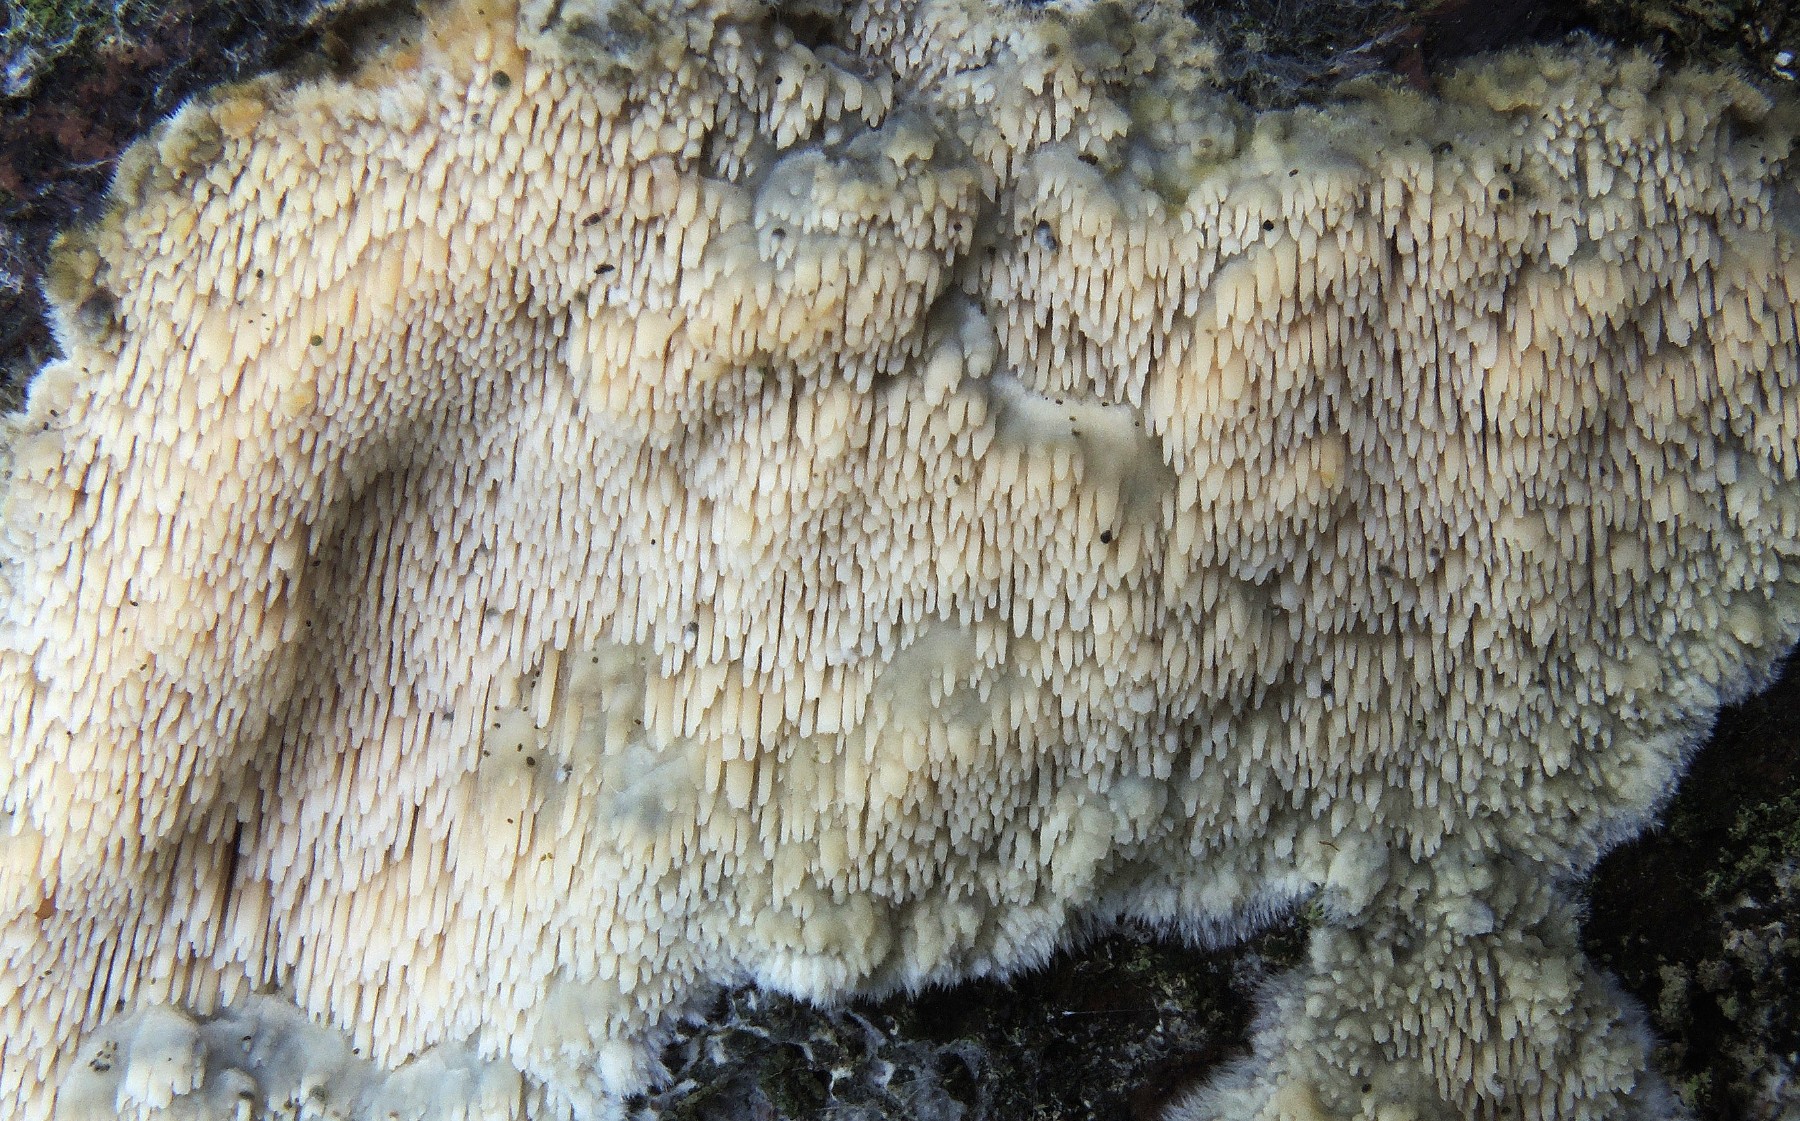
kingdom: Fungi
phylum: Basidiomycota
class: Agaricomycetes
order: Polyporales
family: Meruliaceae
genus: Mycoaciella
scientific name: Mycoaciella bispora
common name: stalaktit-vokspig
